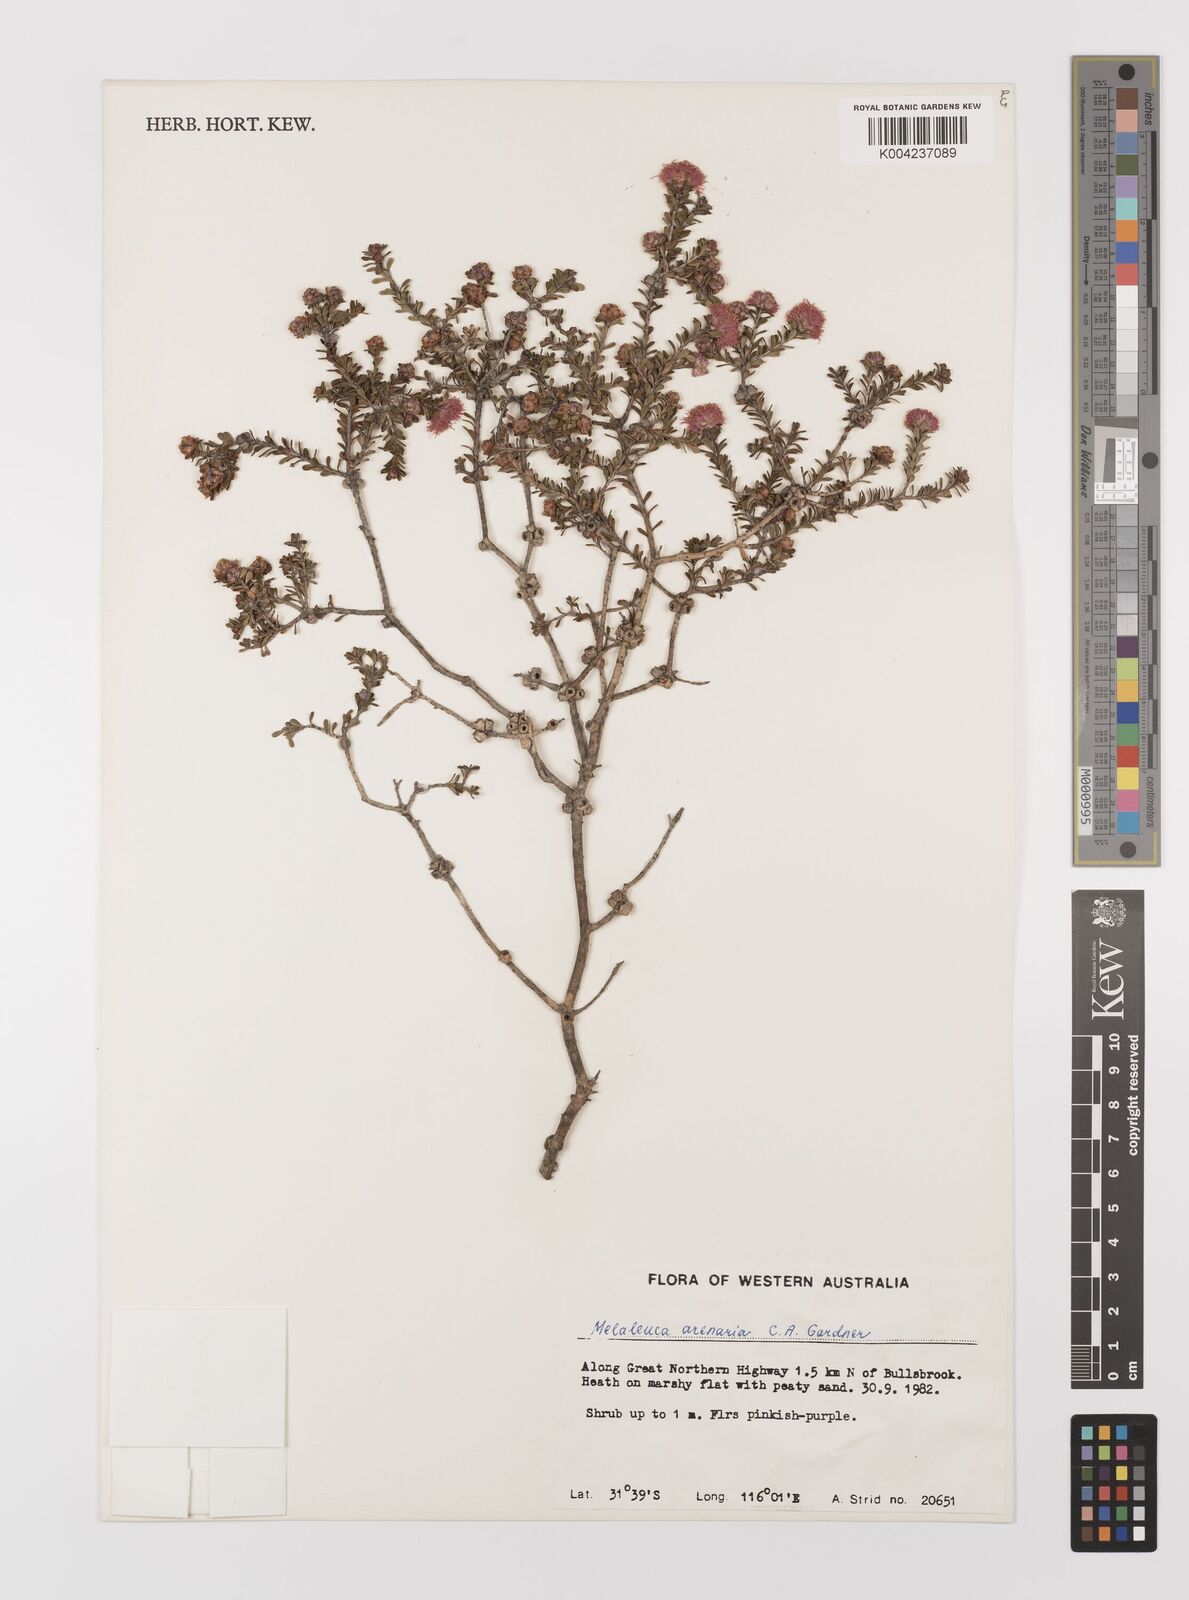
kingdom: Plantae
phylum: Tracheophyta
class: Magnoliopsida
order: Myrtales
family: Myrtaceae
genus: Melaleuca
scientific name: Melaleuca tuberculata
